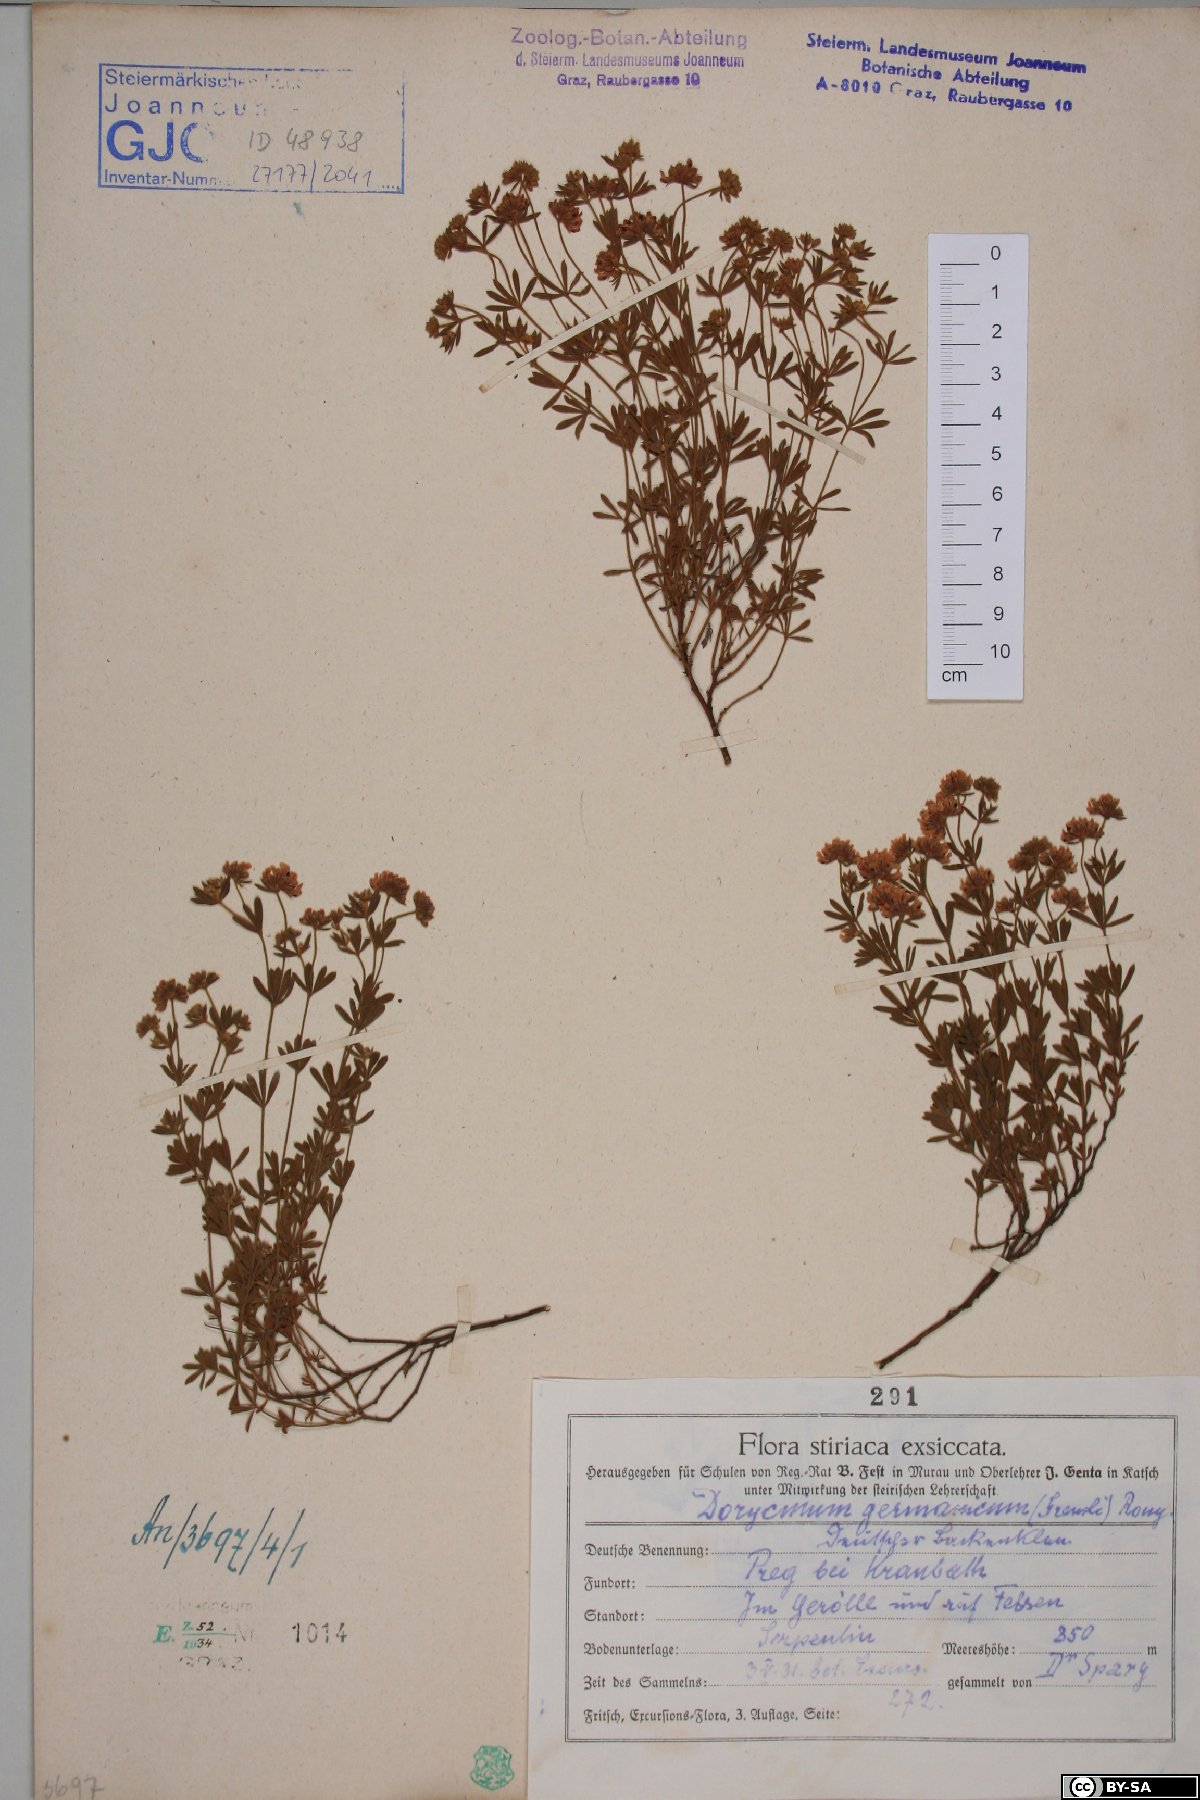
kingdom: Plantae
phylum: Tracheophyta
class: Magnoliopsida
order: Fabales
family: Fabaceae
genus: Lotus
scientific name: Lotus germanicus
